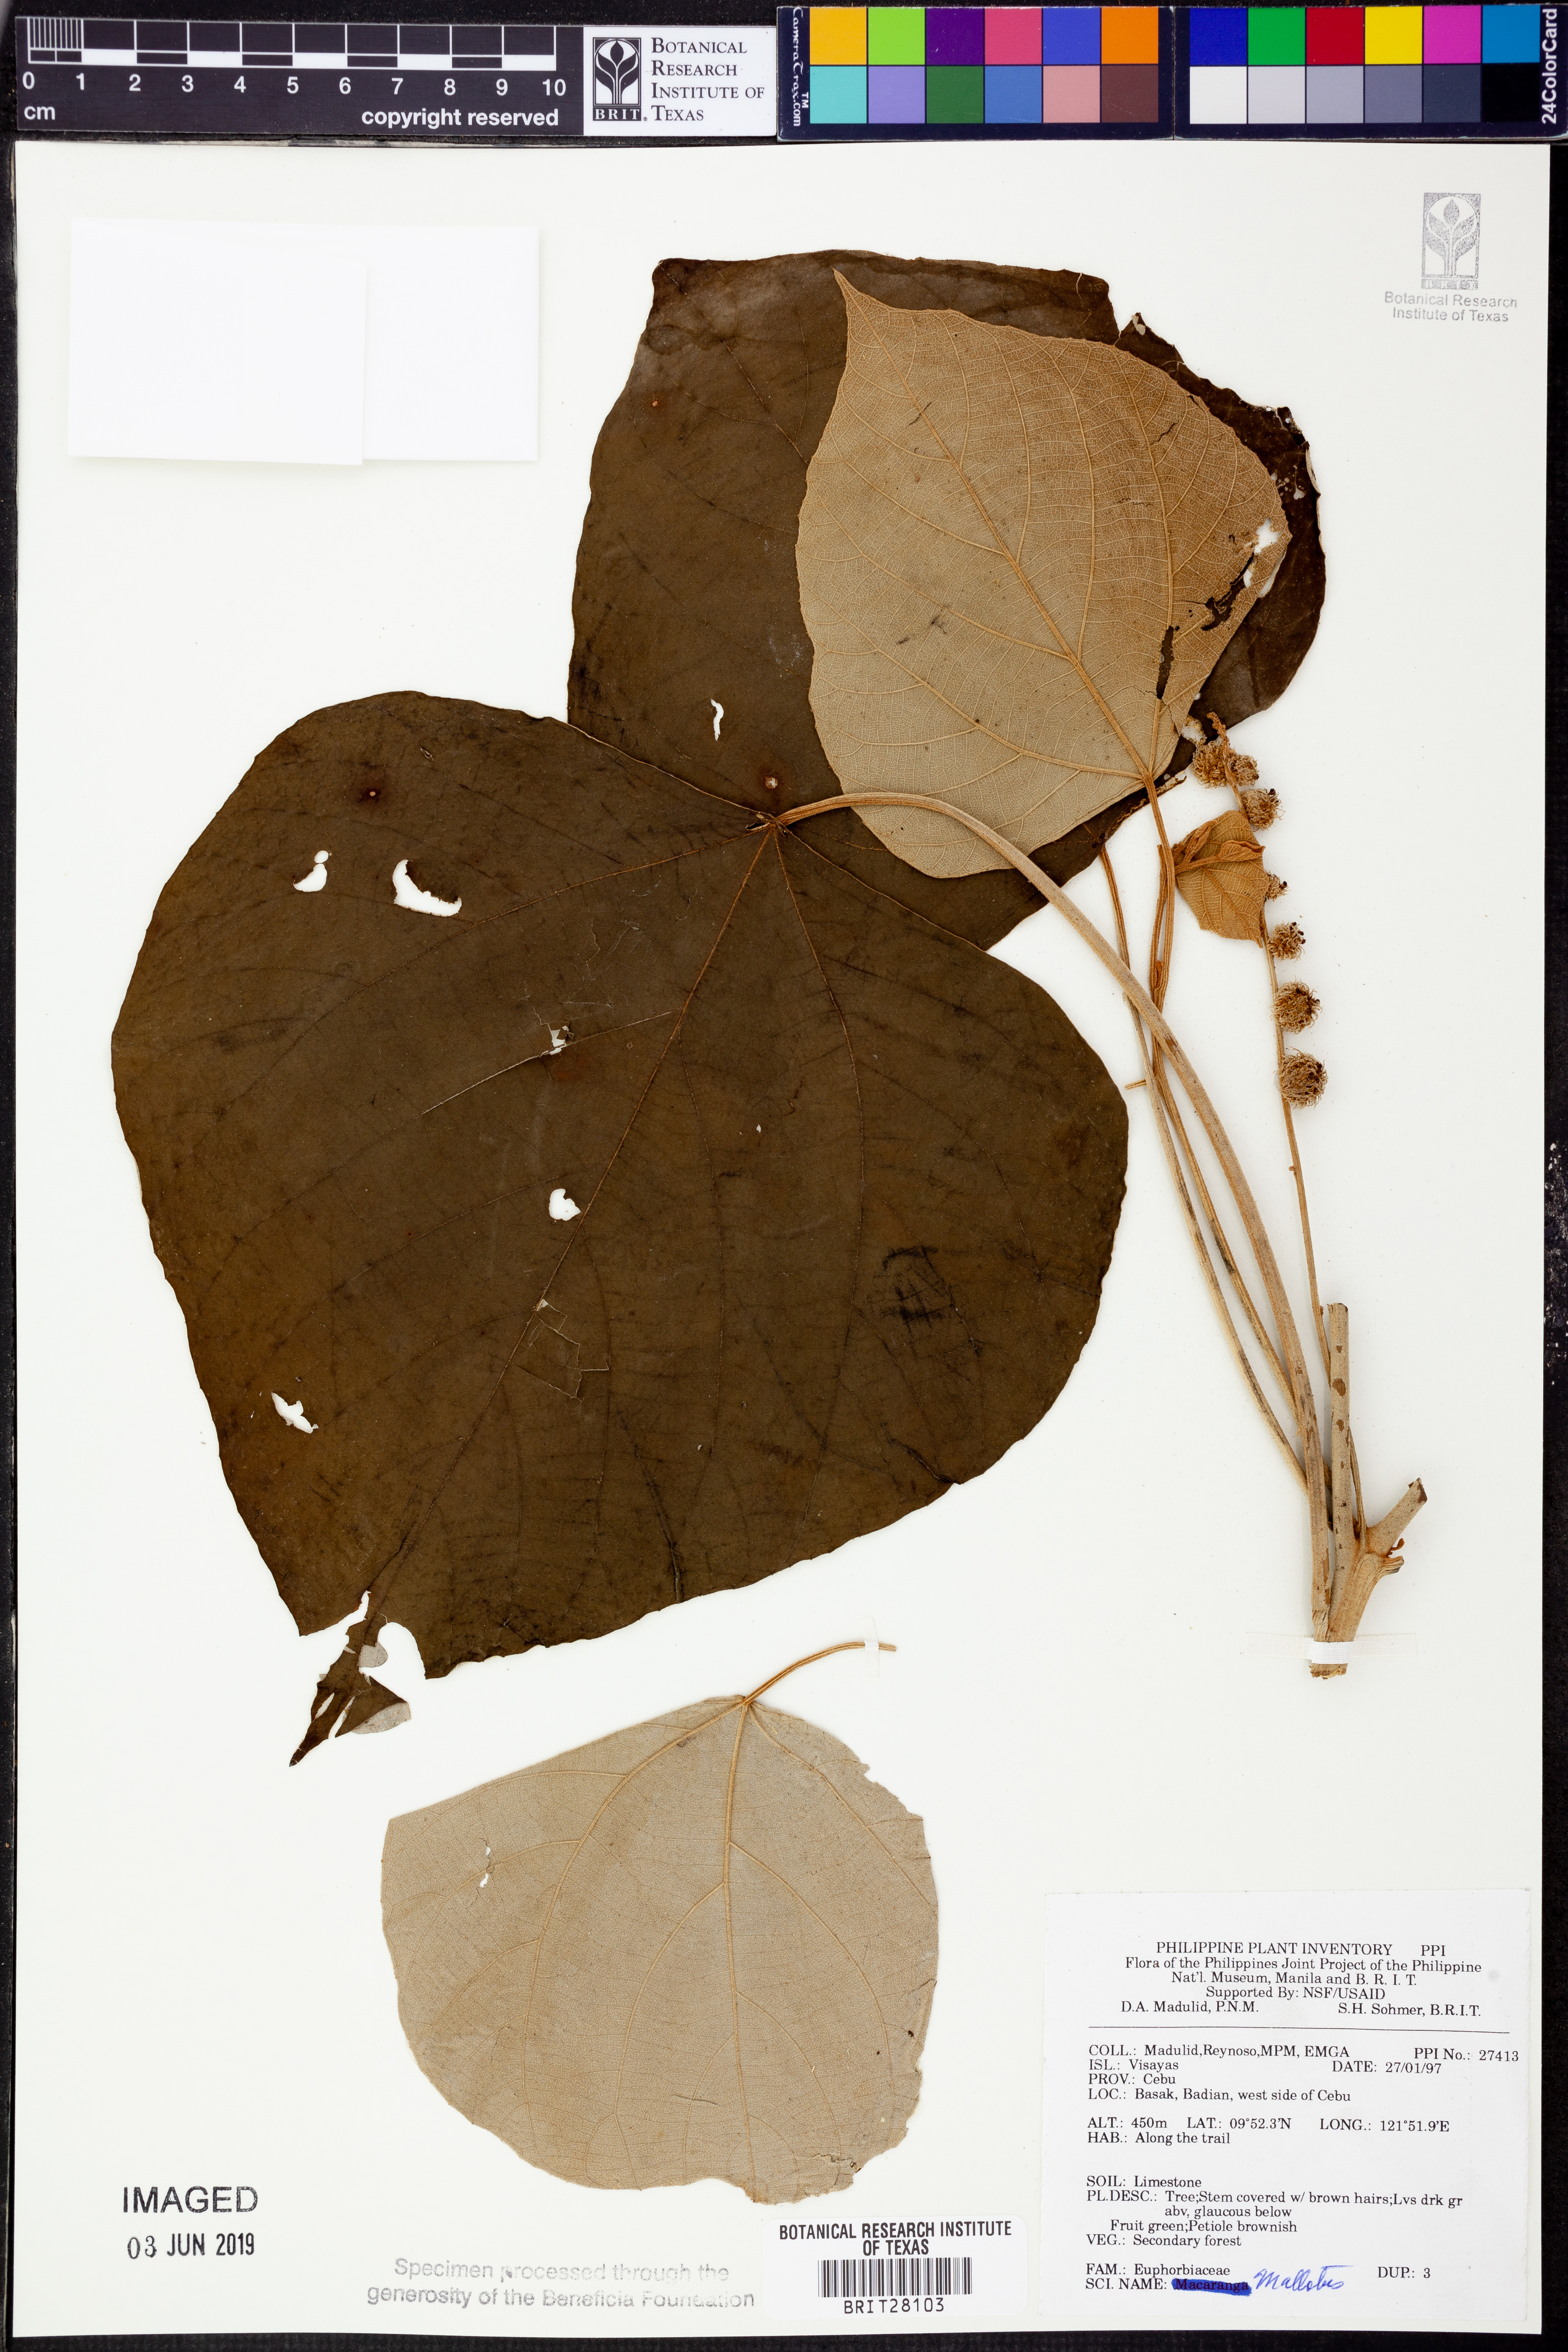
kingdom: Plantae
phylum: Tracheophyta
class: Magnoliopsida
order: Malpighiales
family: Euphorbiaceae
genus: Mallotus
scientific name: Mallotus
